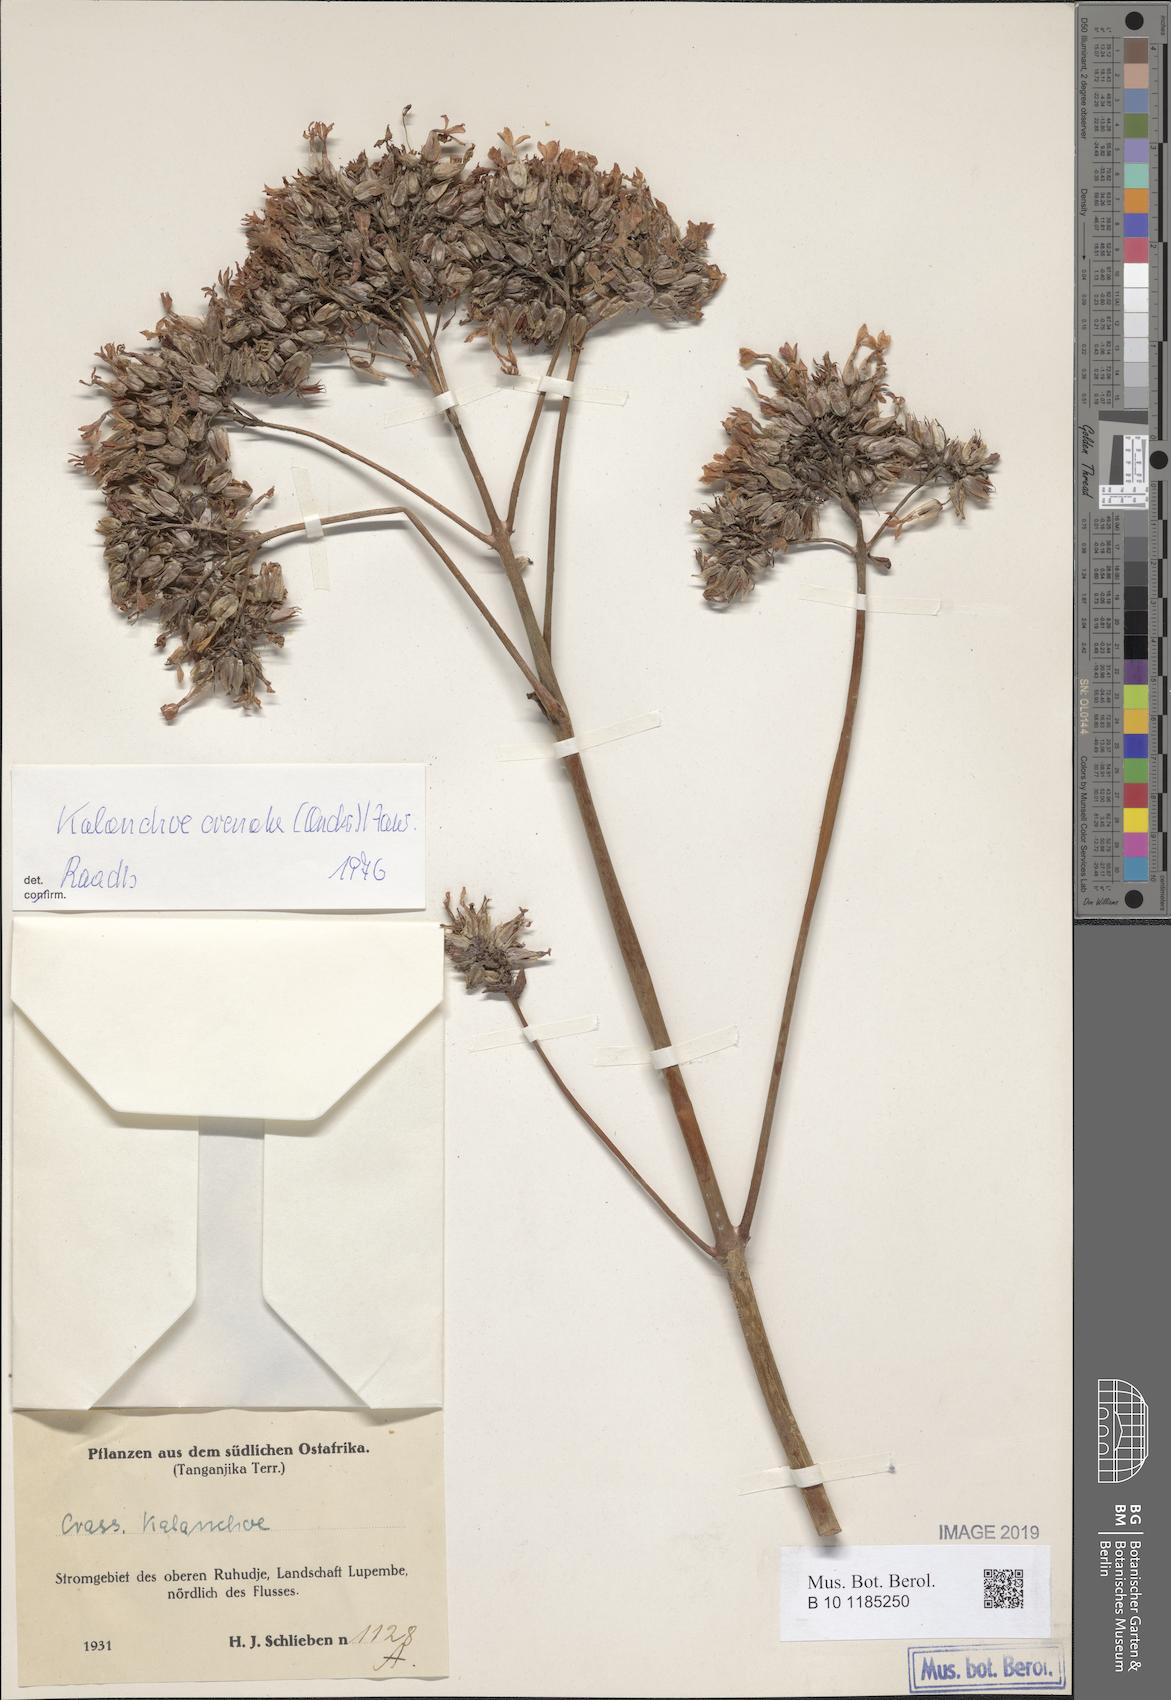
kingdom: Plantae
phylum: Tracheophyta
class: Magnoliopsida
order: Saxifragales
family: Crassulaceae
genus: Kalanchoe
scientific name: Kalanchoe crenata
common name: Neverdie
